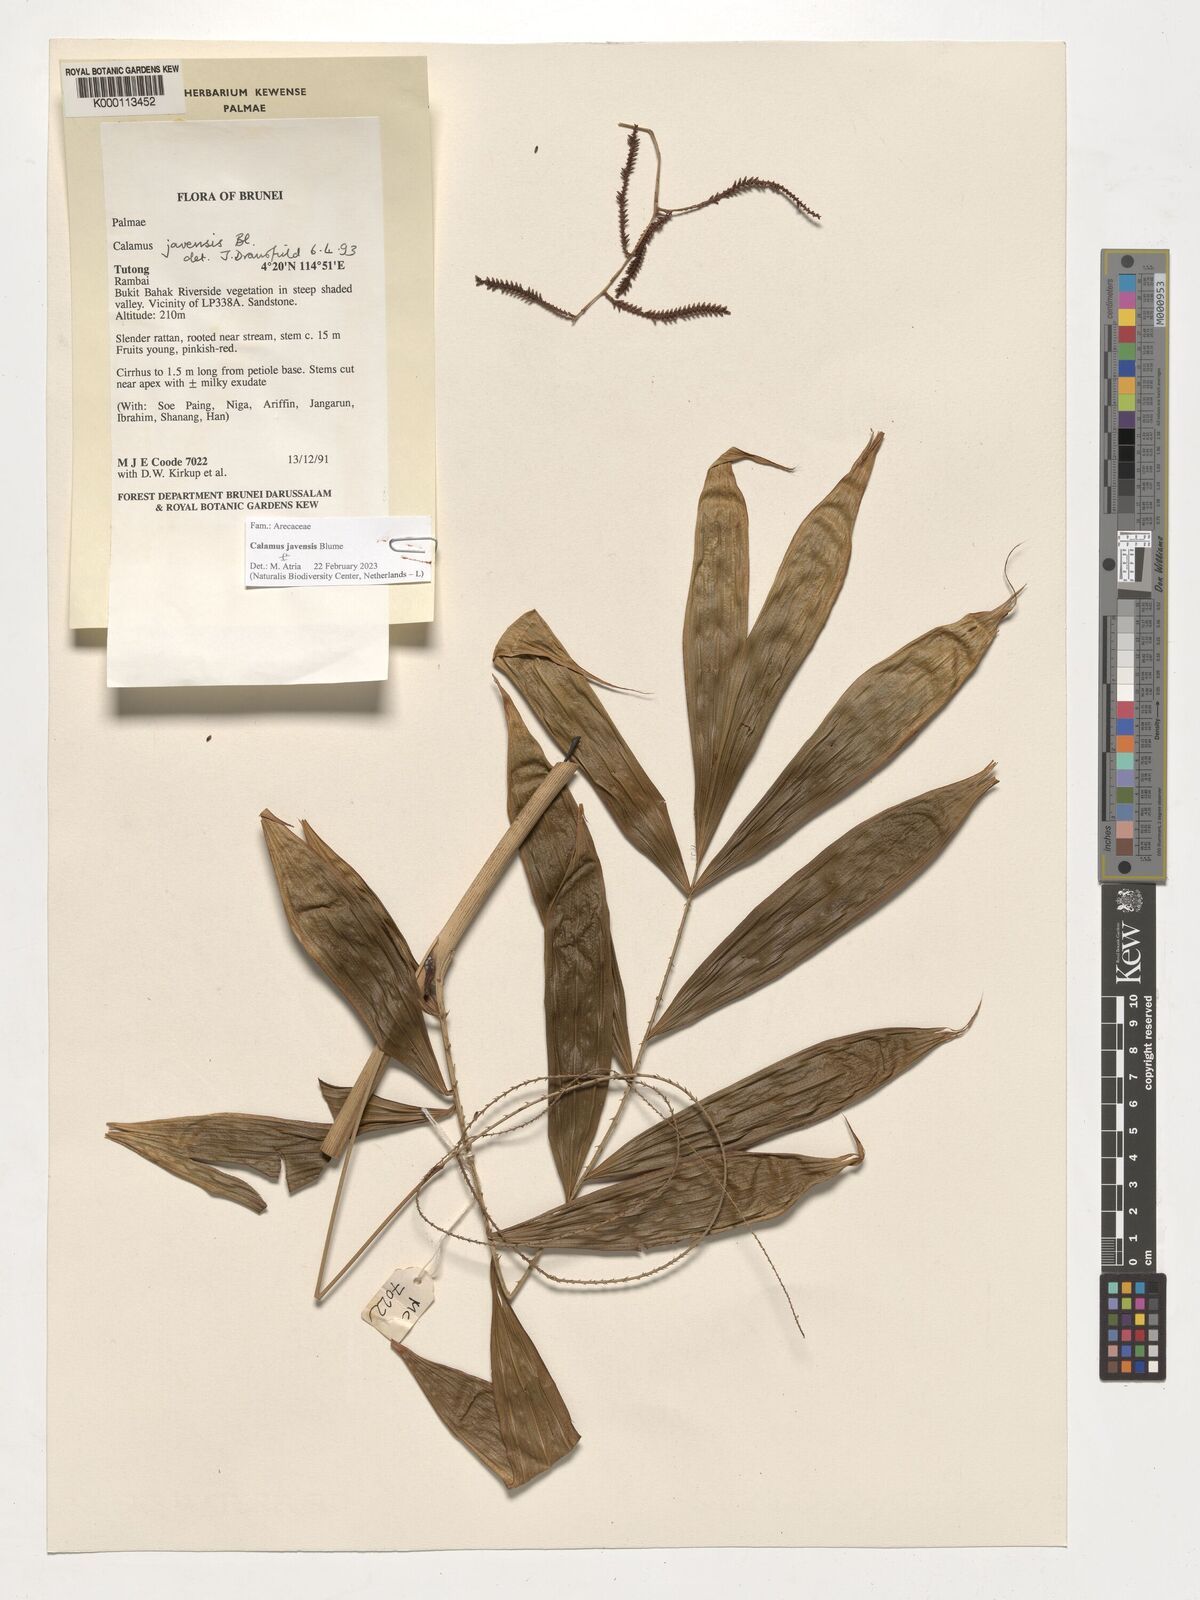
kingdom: Plantae
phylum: Tracheophyta
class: Liliopsida
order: Arecales
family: Arecaceae
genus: Calamus
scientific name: Calamus javensis
